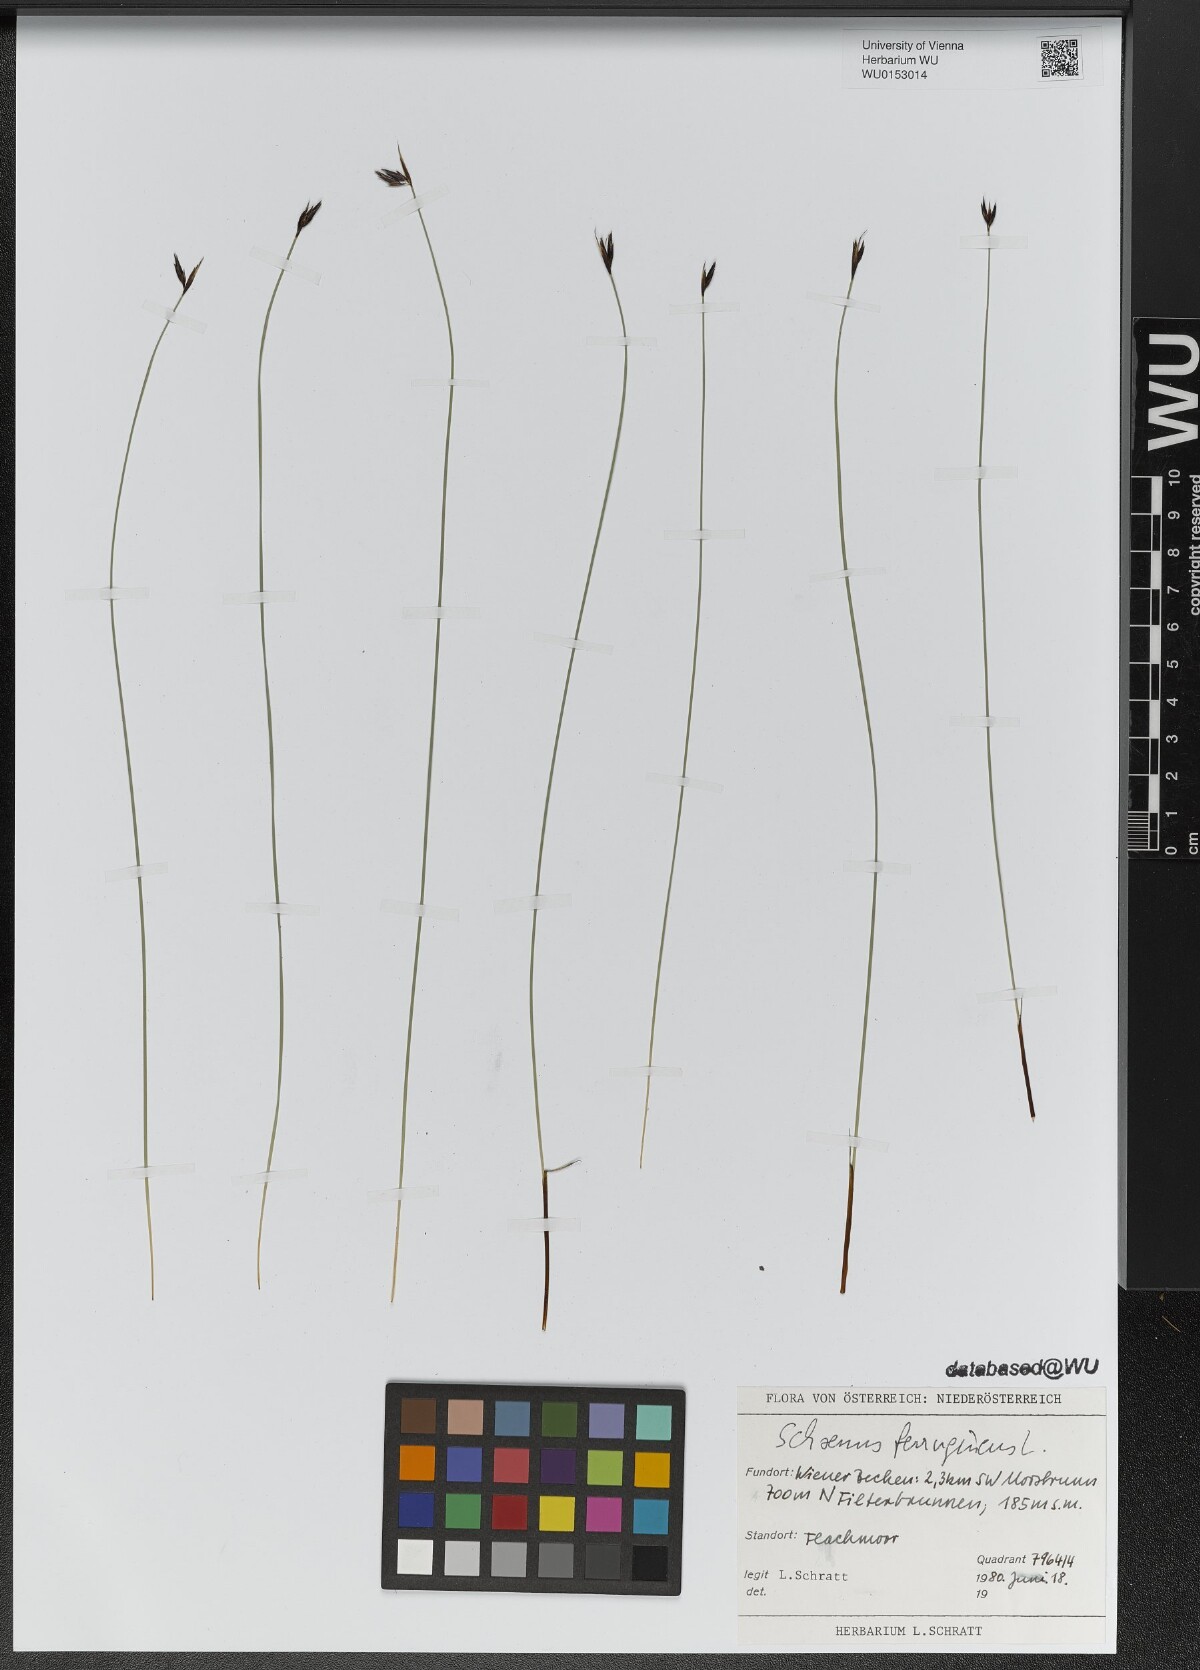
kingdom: Plantae
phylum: Tracheophyta
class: Liliopsida
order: Poales
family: Cyperaceae
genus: Schoenus
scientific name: Schoenus ferrugineus
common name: Brown bog-rush
